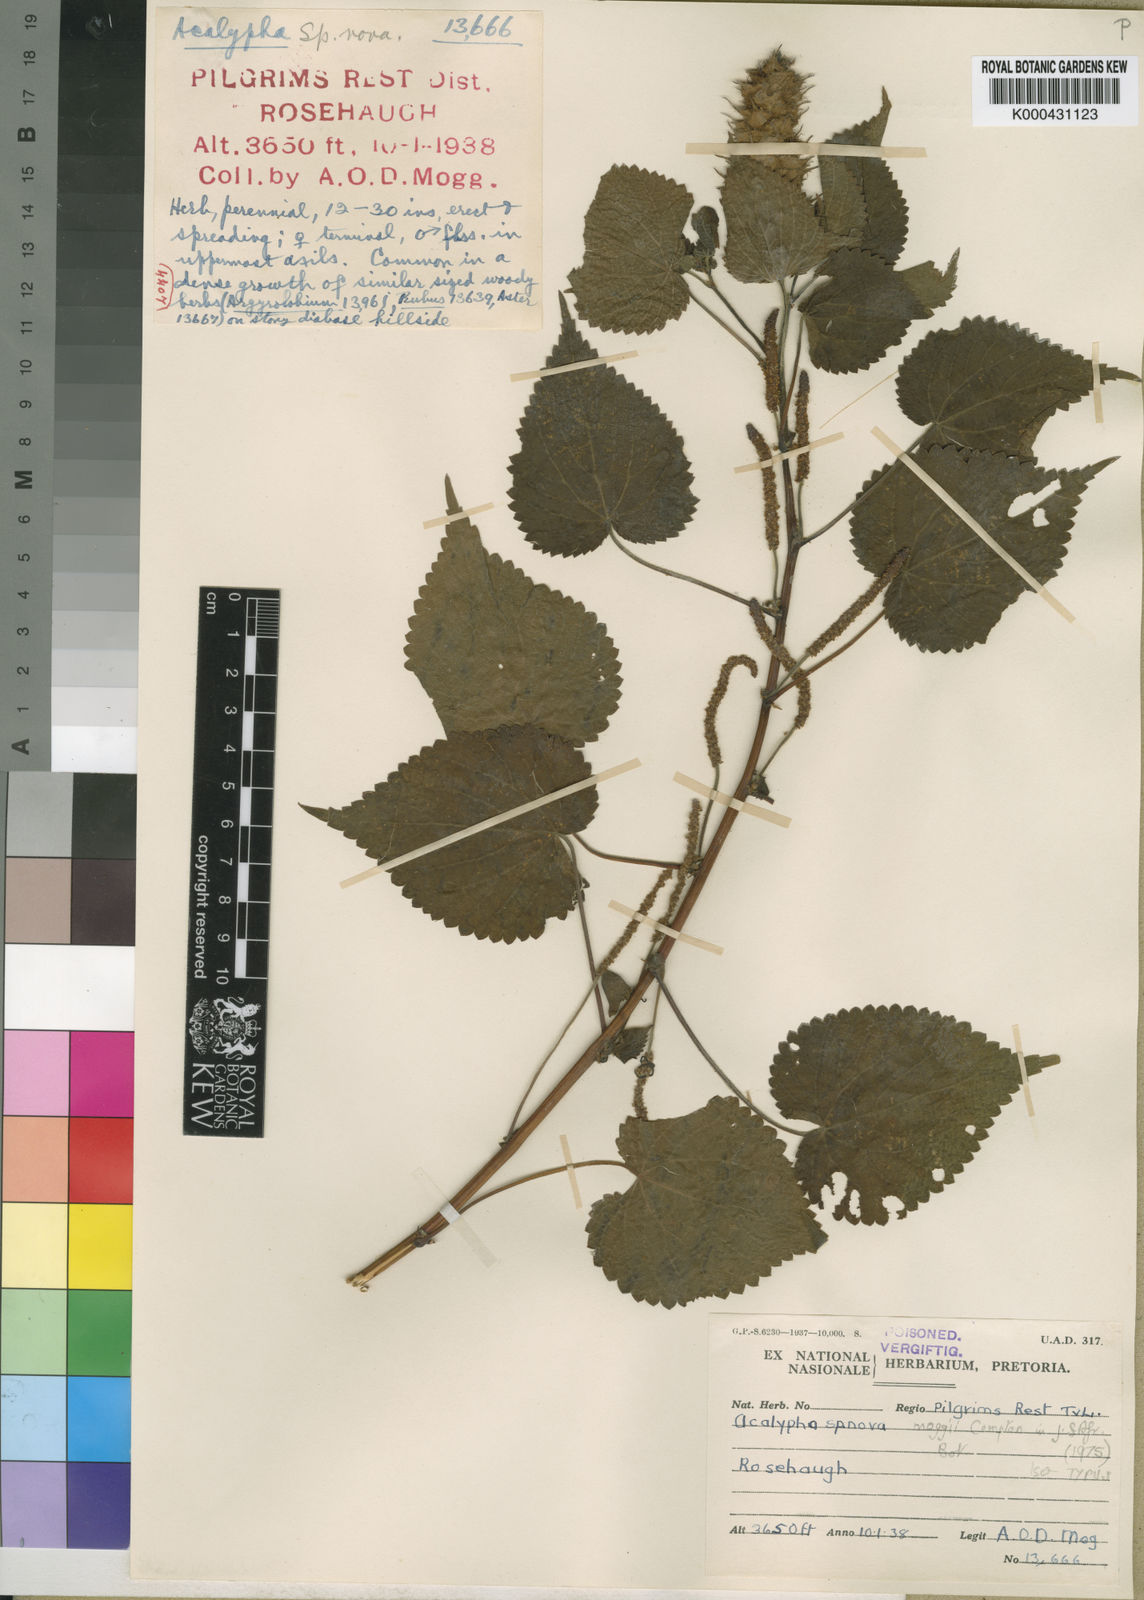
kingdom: Plantae
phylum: Tracheophyta
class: Magnoliopsida
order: Malpighiales
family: Euphorbiaceae
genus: Acalypha
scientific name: Acalypha ornata
